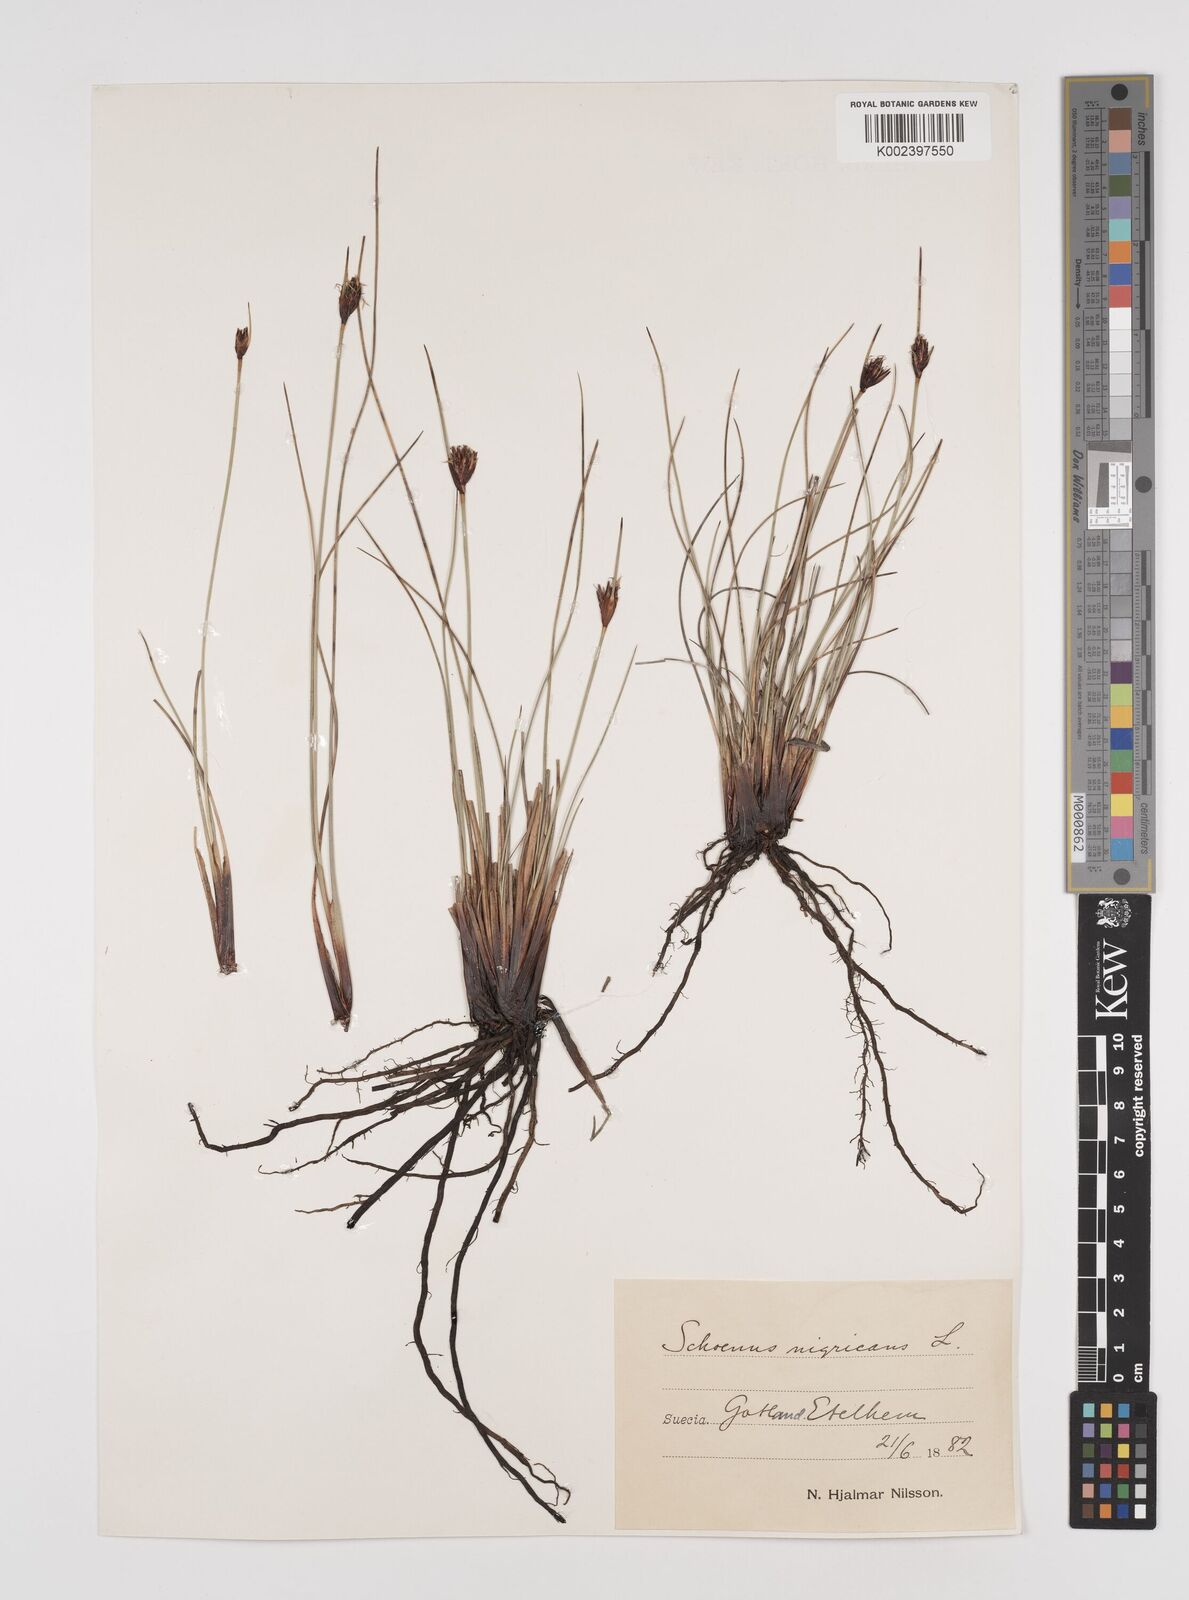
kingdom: Plantae
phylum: Tracheophyta
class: Liliopsida
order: Poales
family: Cyperaceae
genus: Schoenus
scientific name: Schoenus nigricans
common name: Black bog-rush
